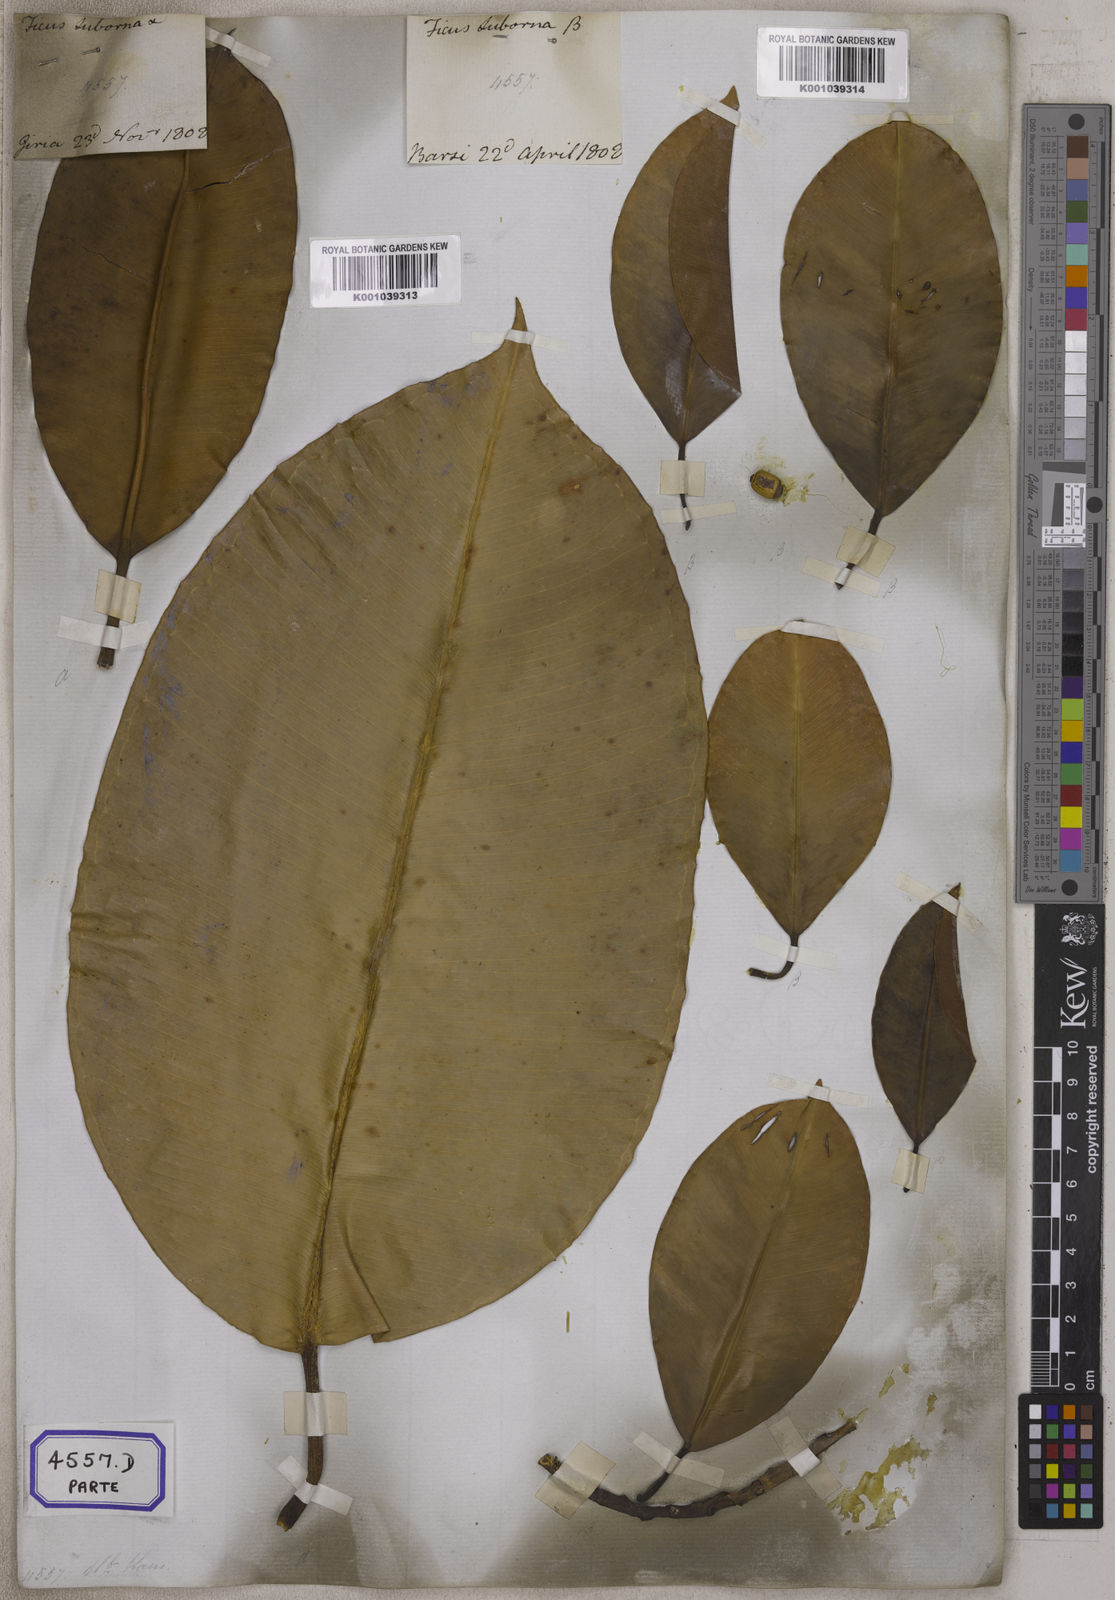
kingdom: Plantae
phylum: Tracheophyta
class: Magnoliopsida
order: Rosales
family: Moraceae
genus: Ficus
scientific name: Ficus
